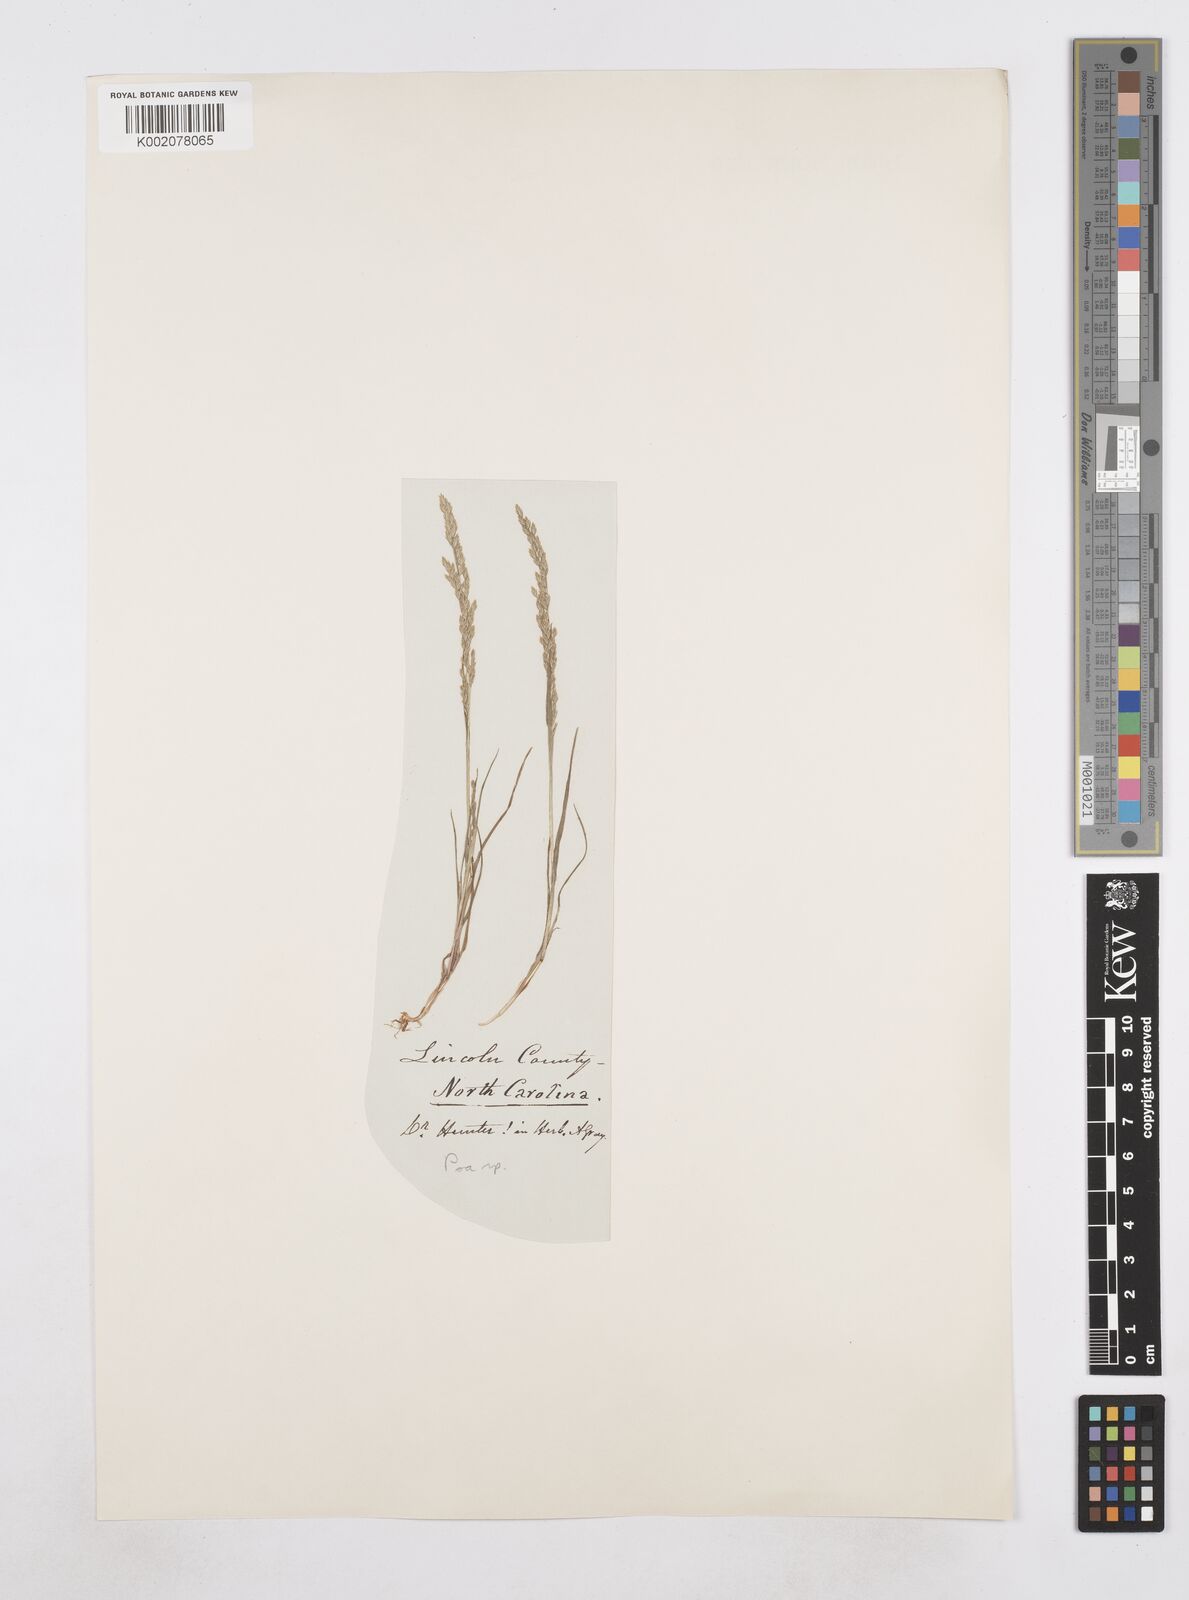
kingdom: Plantae
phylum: Tracheophyta
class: Liliopsida
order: Poales
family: Poaceae
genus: Poa
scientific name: Poa
